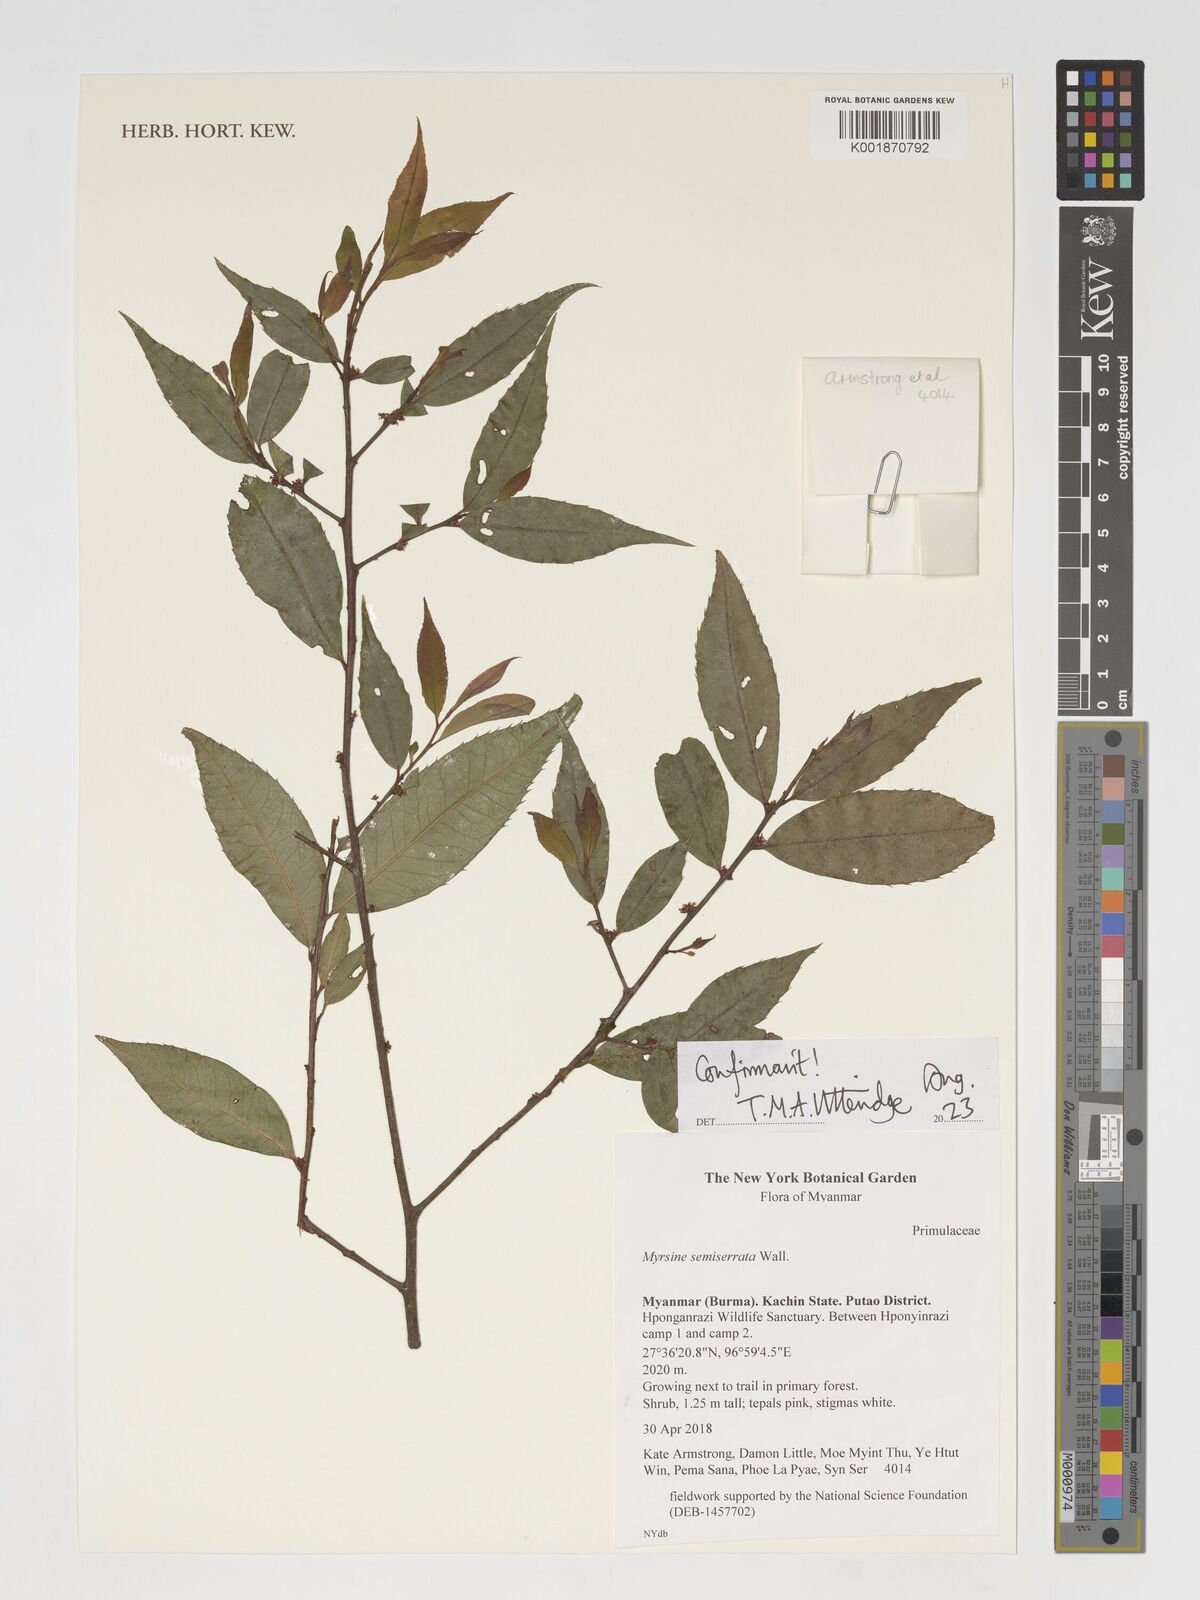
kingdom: Plantae
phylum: Tracheophyta
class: Magnoliopsida
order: Ericales
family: Primulaceae
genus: Myrsine
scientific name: Myrsine semiserrata
